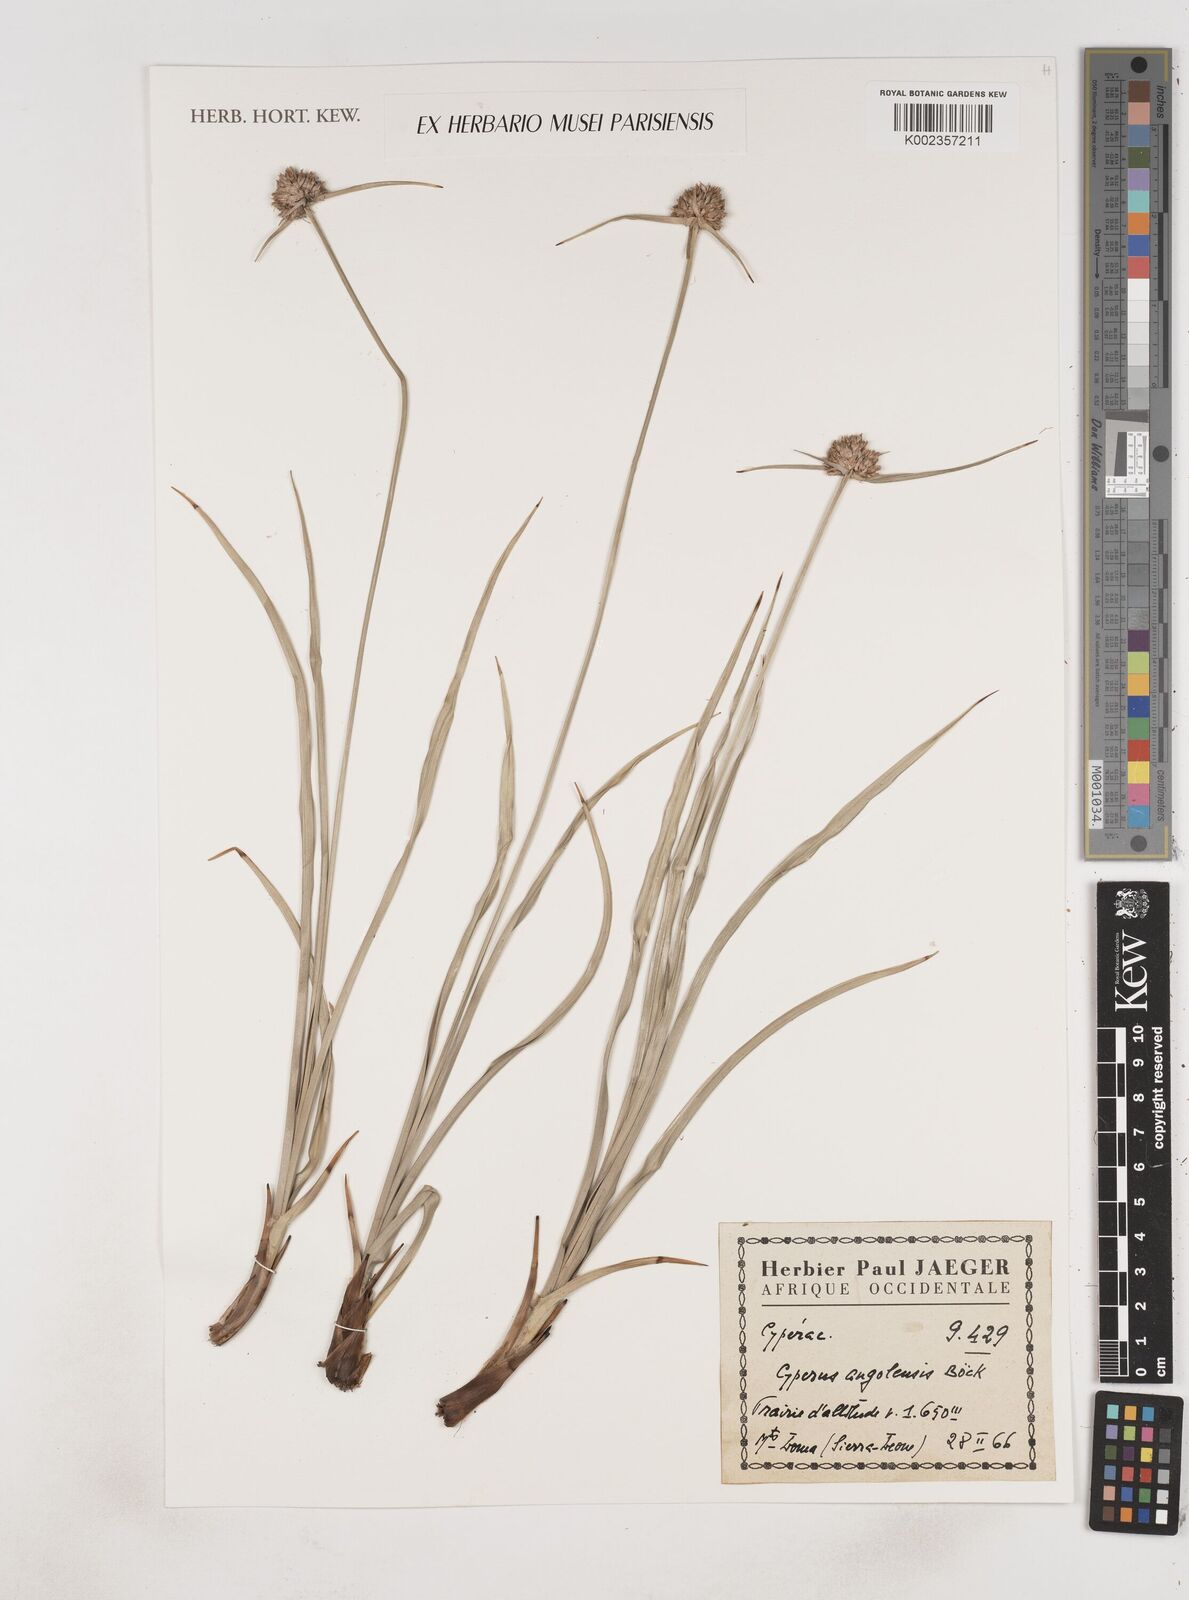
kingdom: Plantae
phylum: Tracheophyta
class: Liliopsida
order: Poales
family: Cyperaceae
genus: Cyperus
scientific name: Cyperus angolensis
